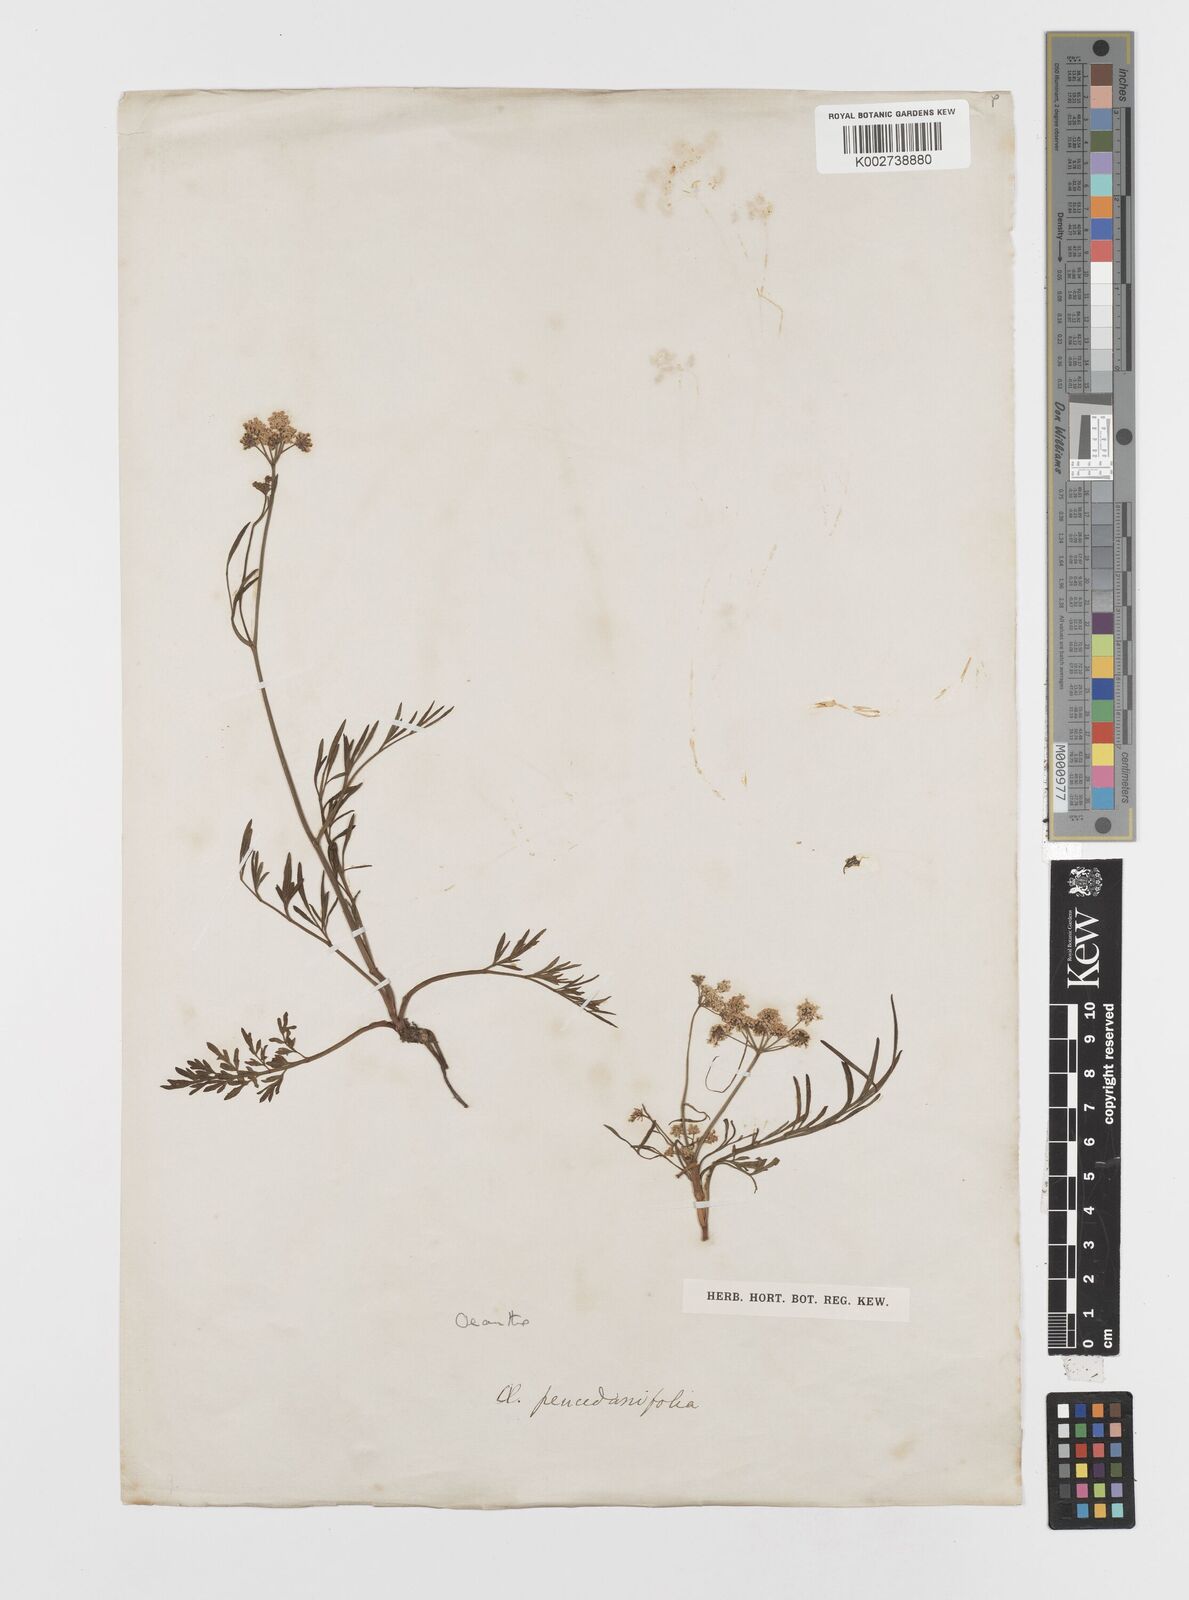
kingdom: Plantae
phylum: Tracheophyta
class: Magnoliopsida
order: Apiales
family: Apiaceae
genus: Oenanthe
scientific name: Oenanthe peucedanifolia
